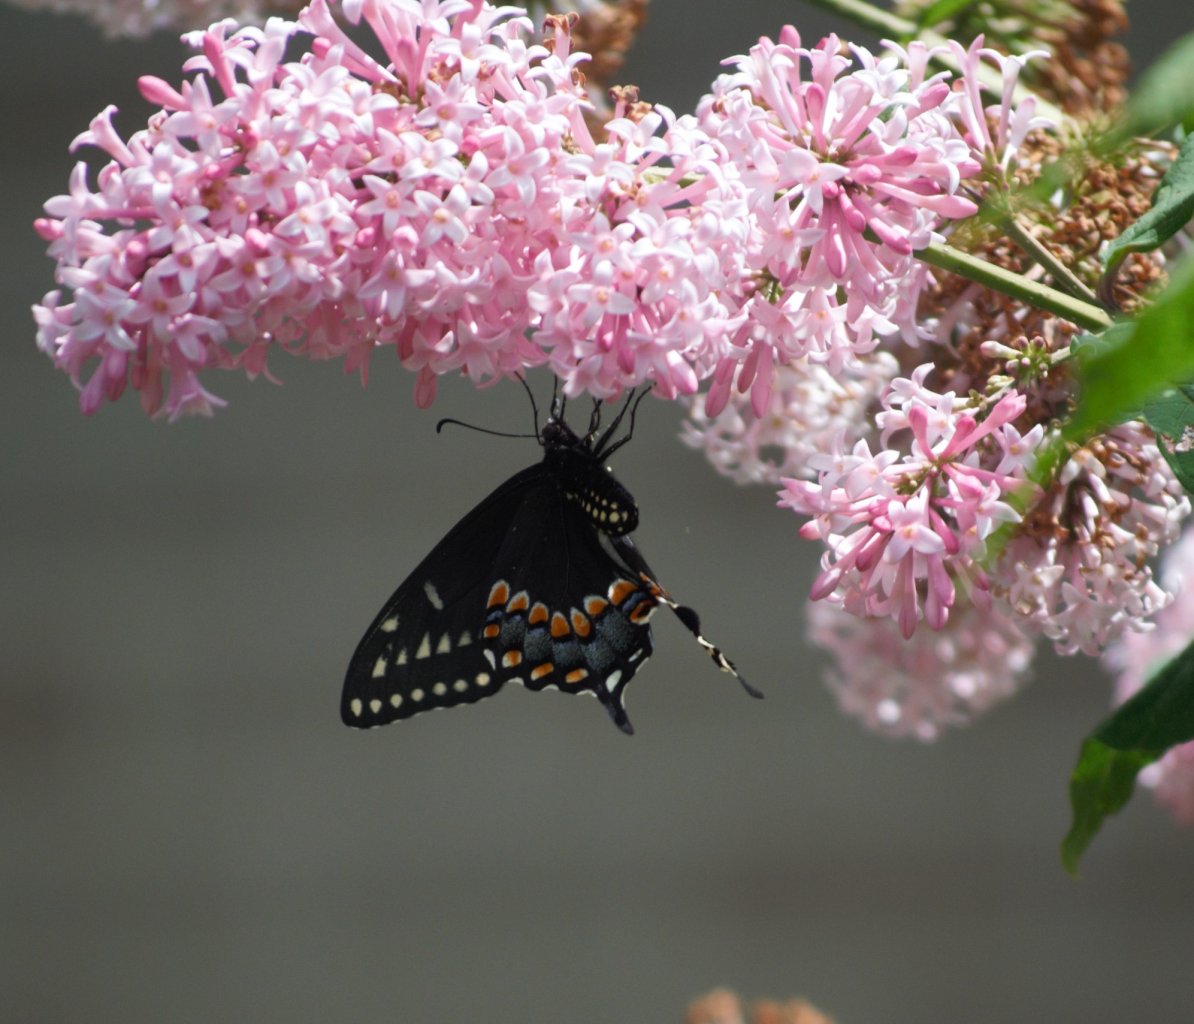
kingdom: Animalia
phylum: Arthropoda
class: Insecta
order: Lepidoptera
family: Papilionidae
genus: Papilio
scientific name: Papilio polyxenes
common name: Black Swallowtail
